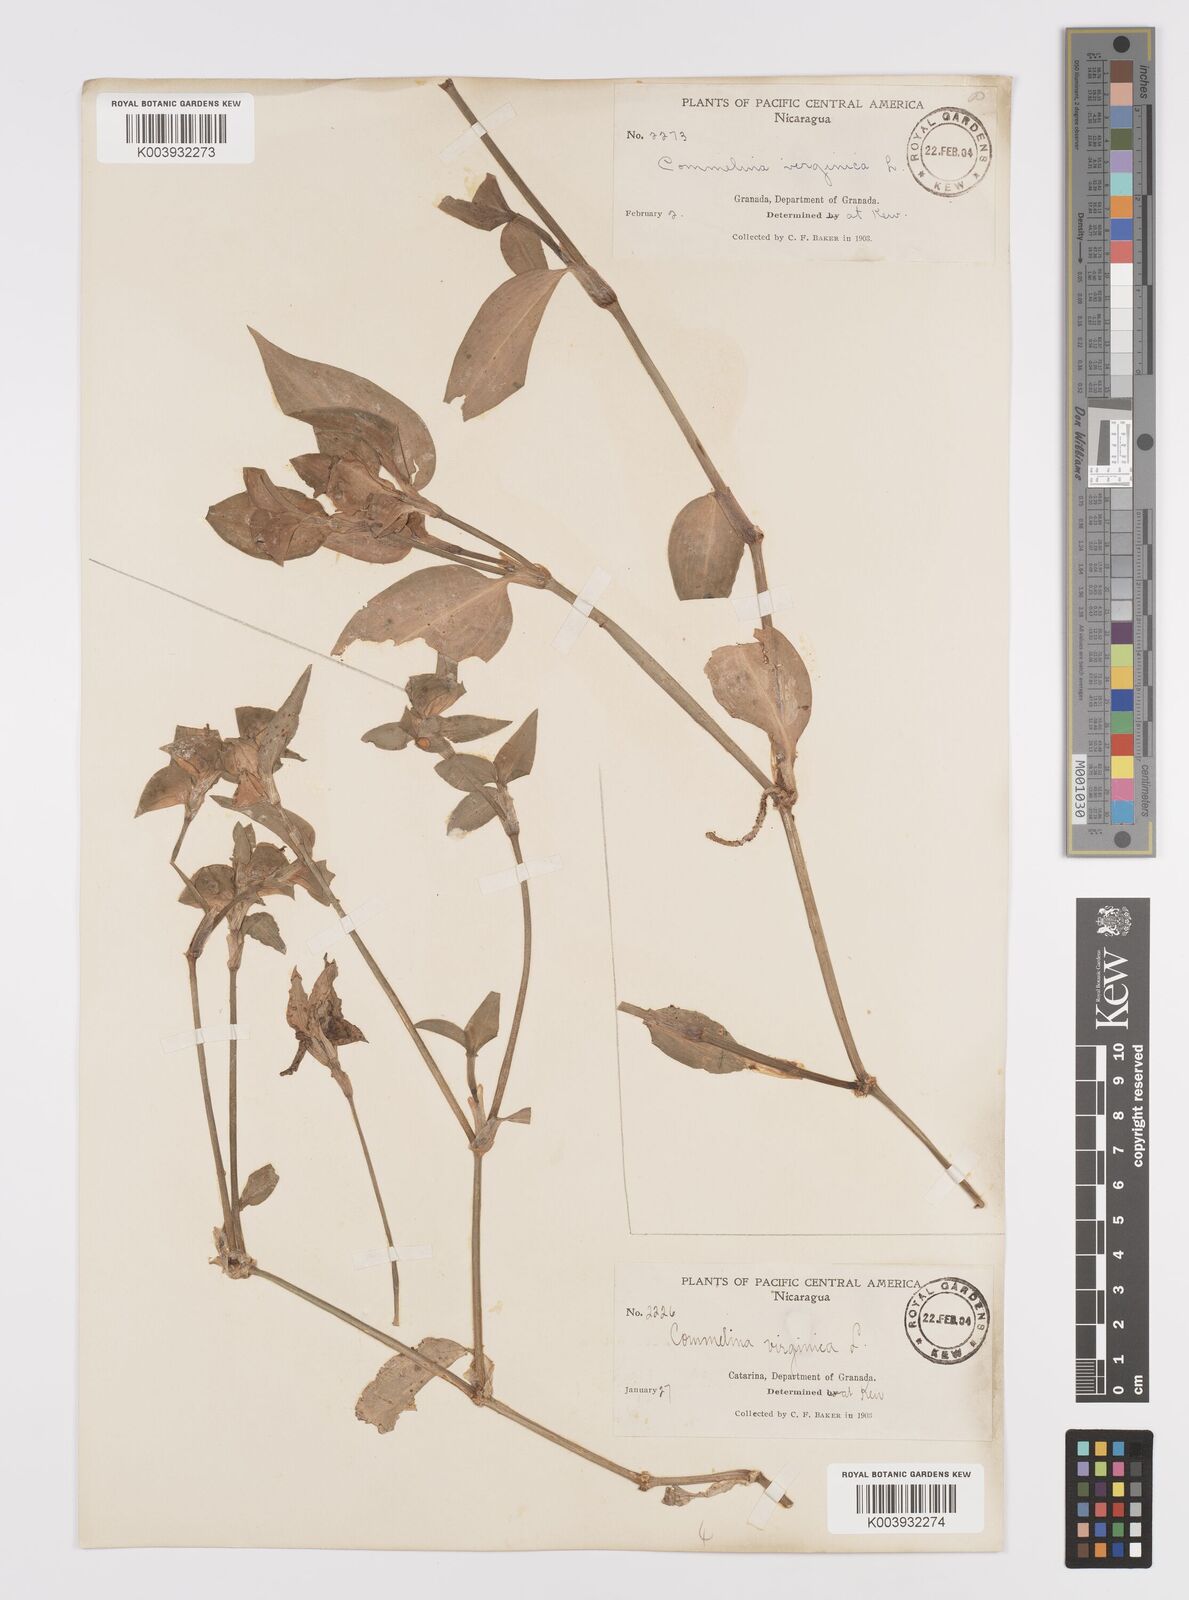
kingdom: Plantae
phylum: Tracheophyta
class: Liliopsida
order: Commelinales
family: Commelinaceae
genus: Commelina
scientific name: Commelina erecta
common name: Blousel blommetjie
